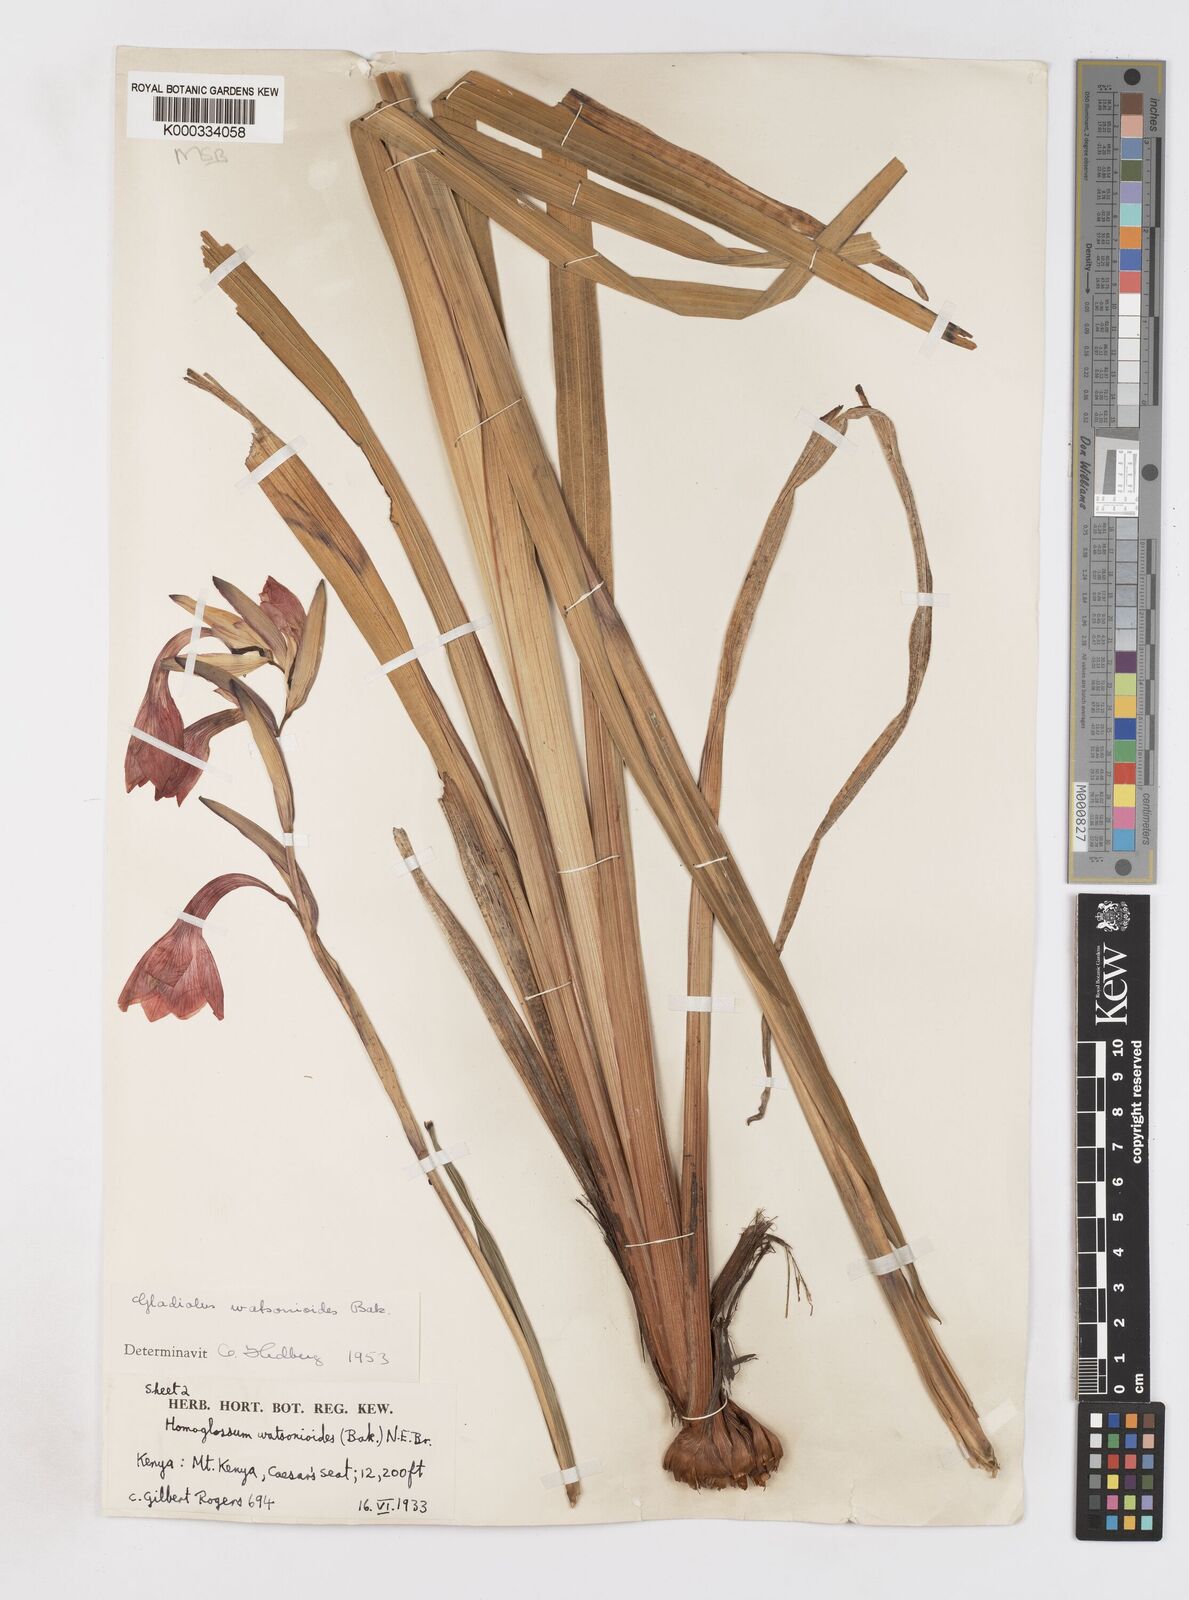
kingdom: Plantae
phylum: Tracheophyta
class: Liliopsida
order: Asparagales
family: Iridaceae
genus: Gladiolus
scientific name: Gladiolus watsonioides
